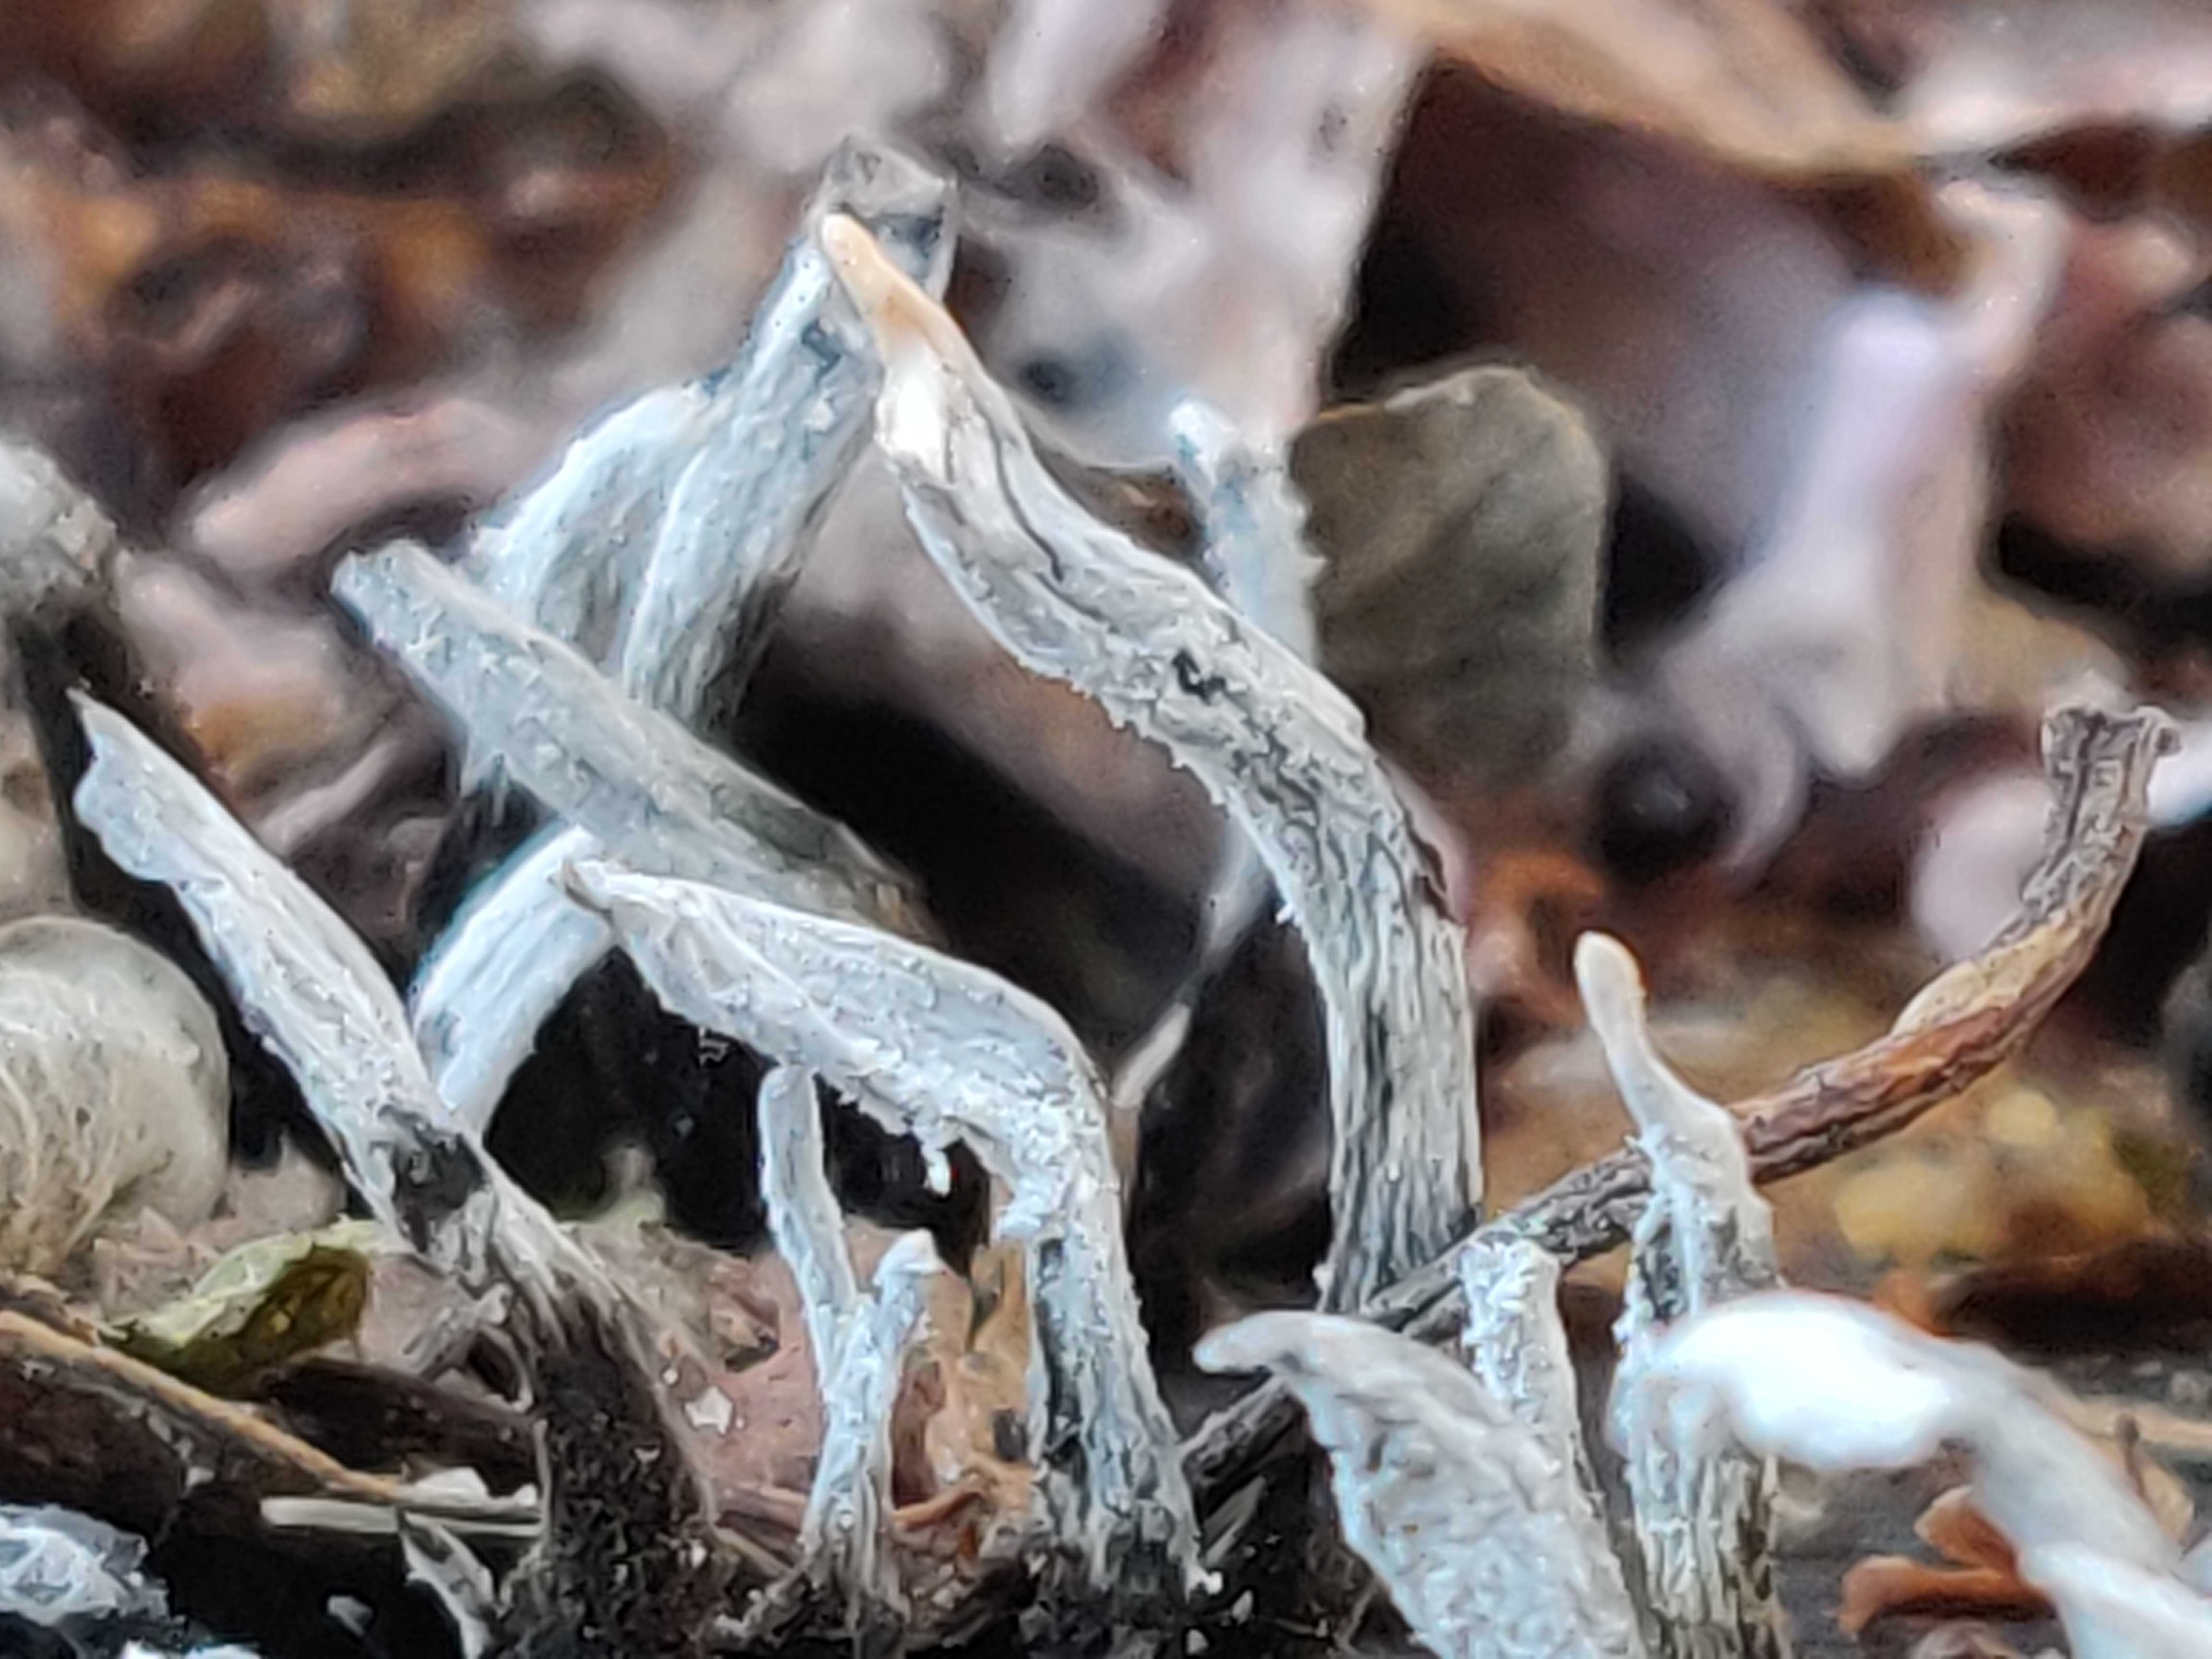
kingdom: Fungi
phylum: Ascomycota
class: Sordariomycetes
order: Xylariales
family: Xylariaceae
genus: Xylaria
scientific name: Xylaria hypoxylon
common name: grenet stødsvamp
